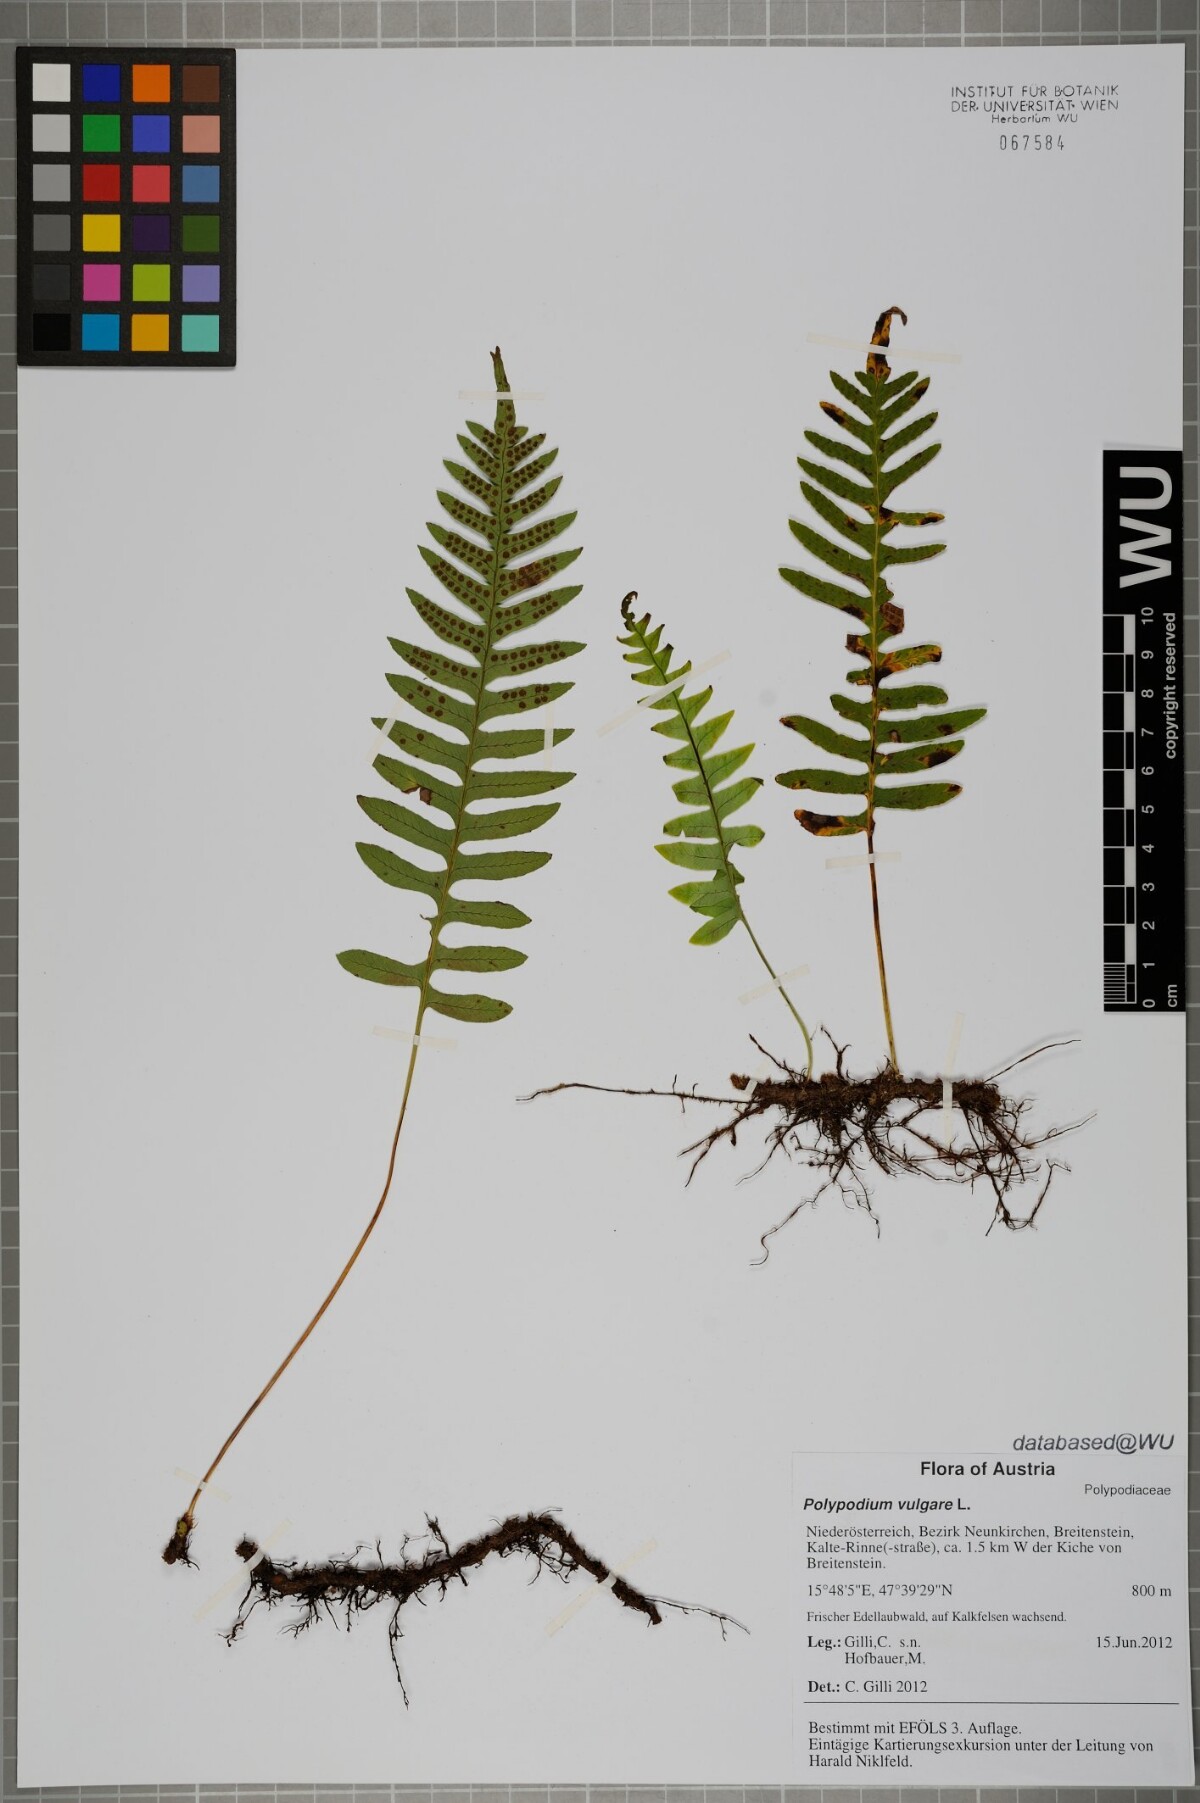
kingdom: Plantae
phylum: Tracheophyta
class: Polypodiopsida
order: Polypodiales
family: Polypodiaceae
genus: Polypodium
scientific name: Polypodium vulgare
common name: Common polypody
